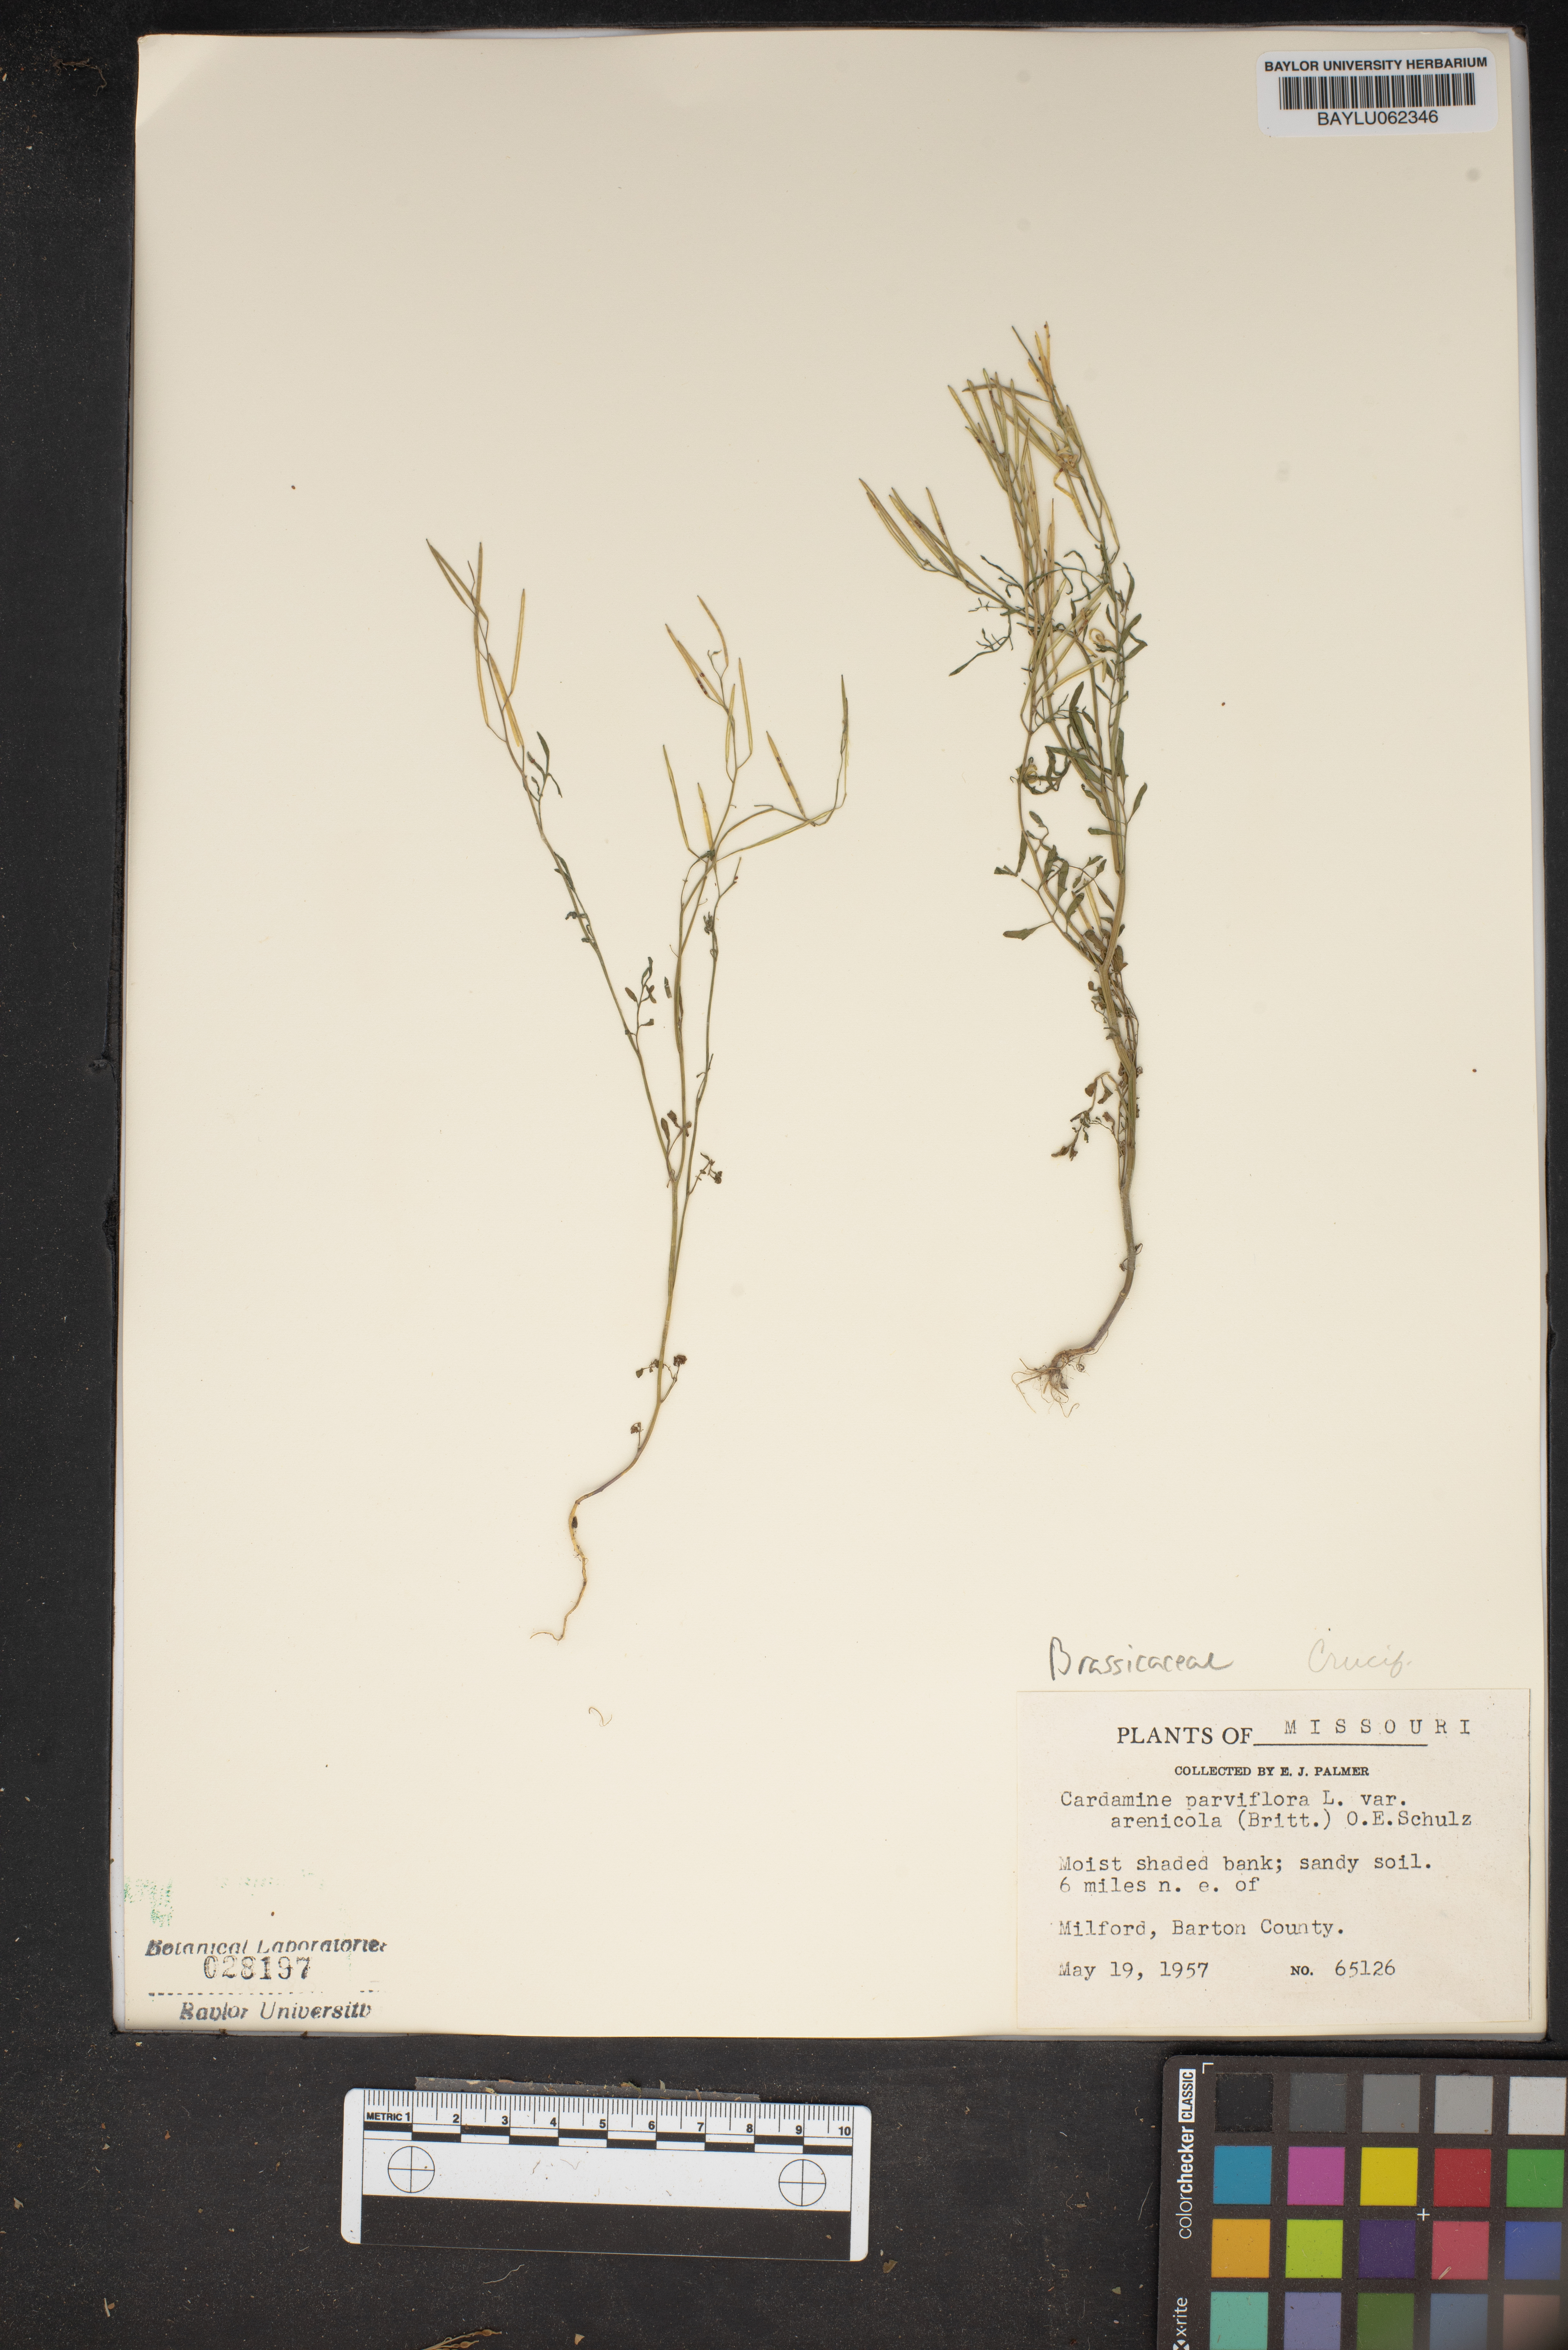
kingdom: Plantae
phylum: Tracheophyta
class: Magnoliopsida
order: Brassicales
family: Brassicaceae
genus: Cardamine
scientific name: Cardamine parviflora
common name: Sand bittercress
